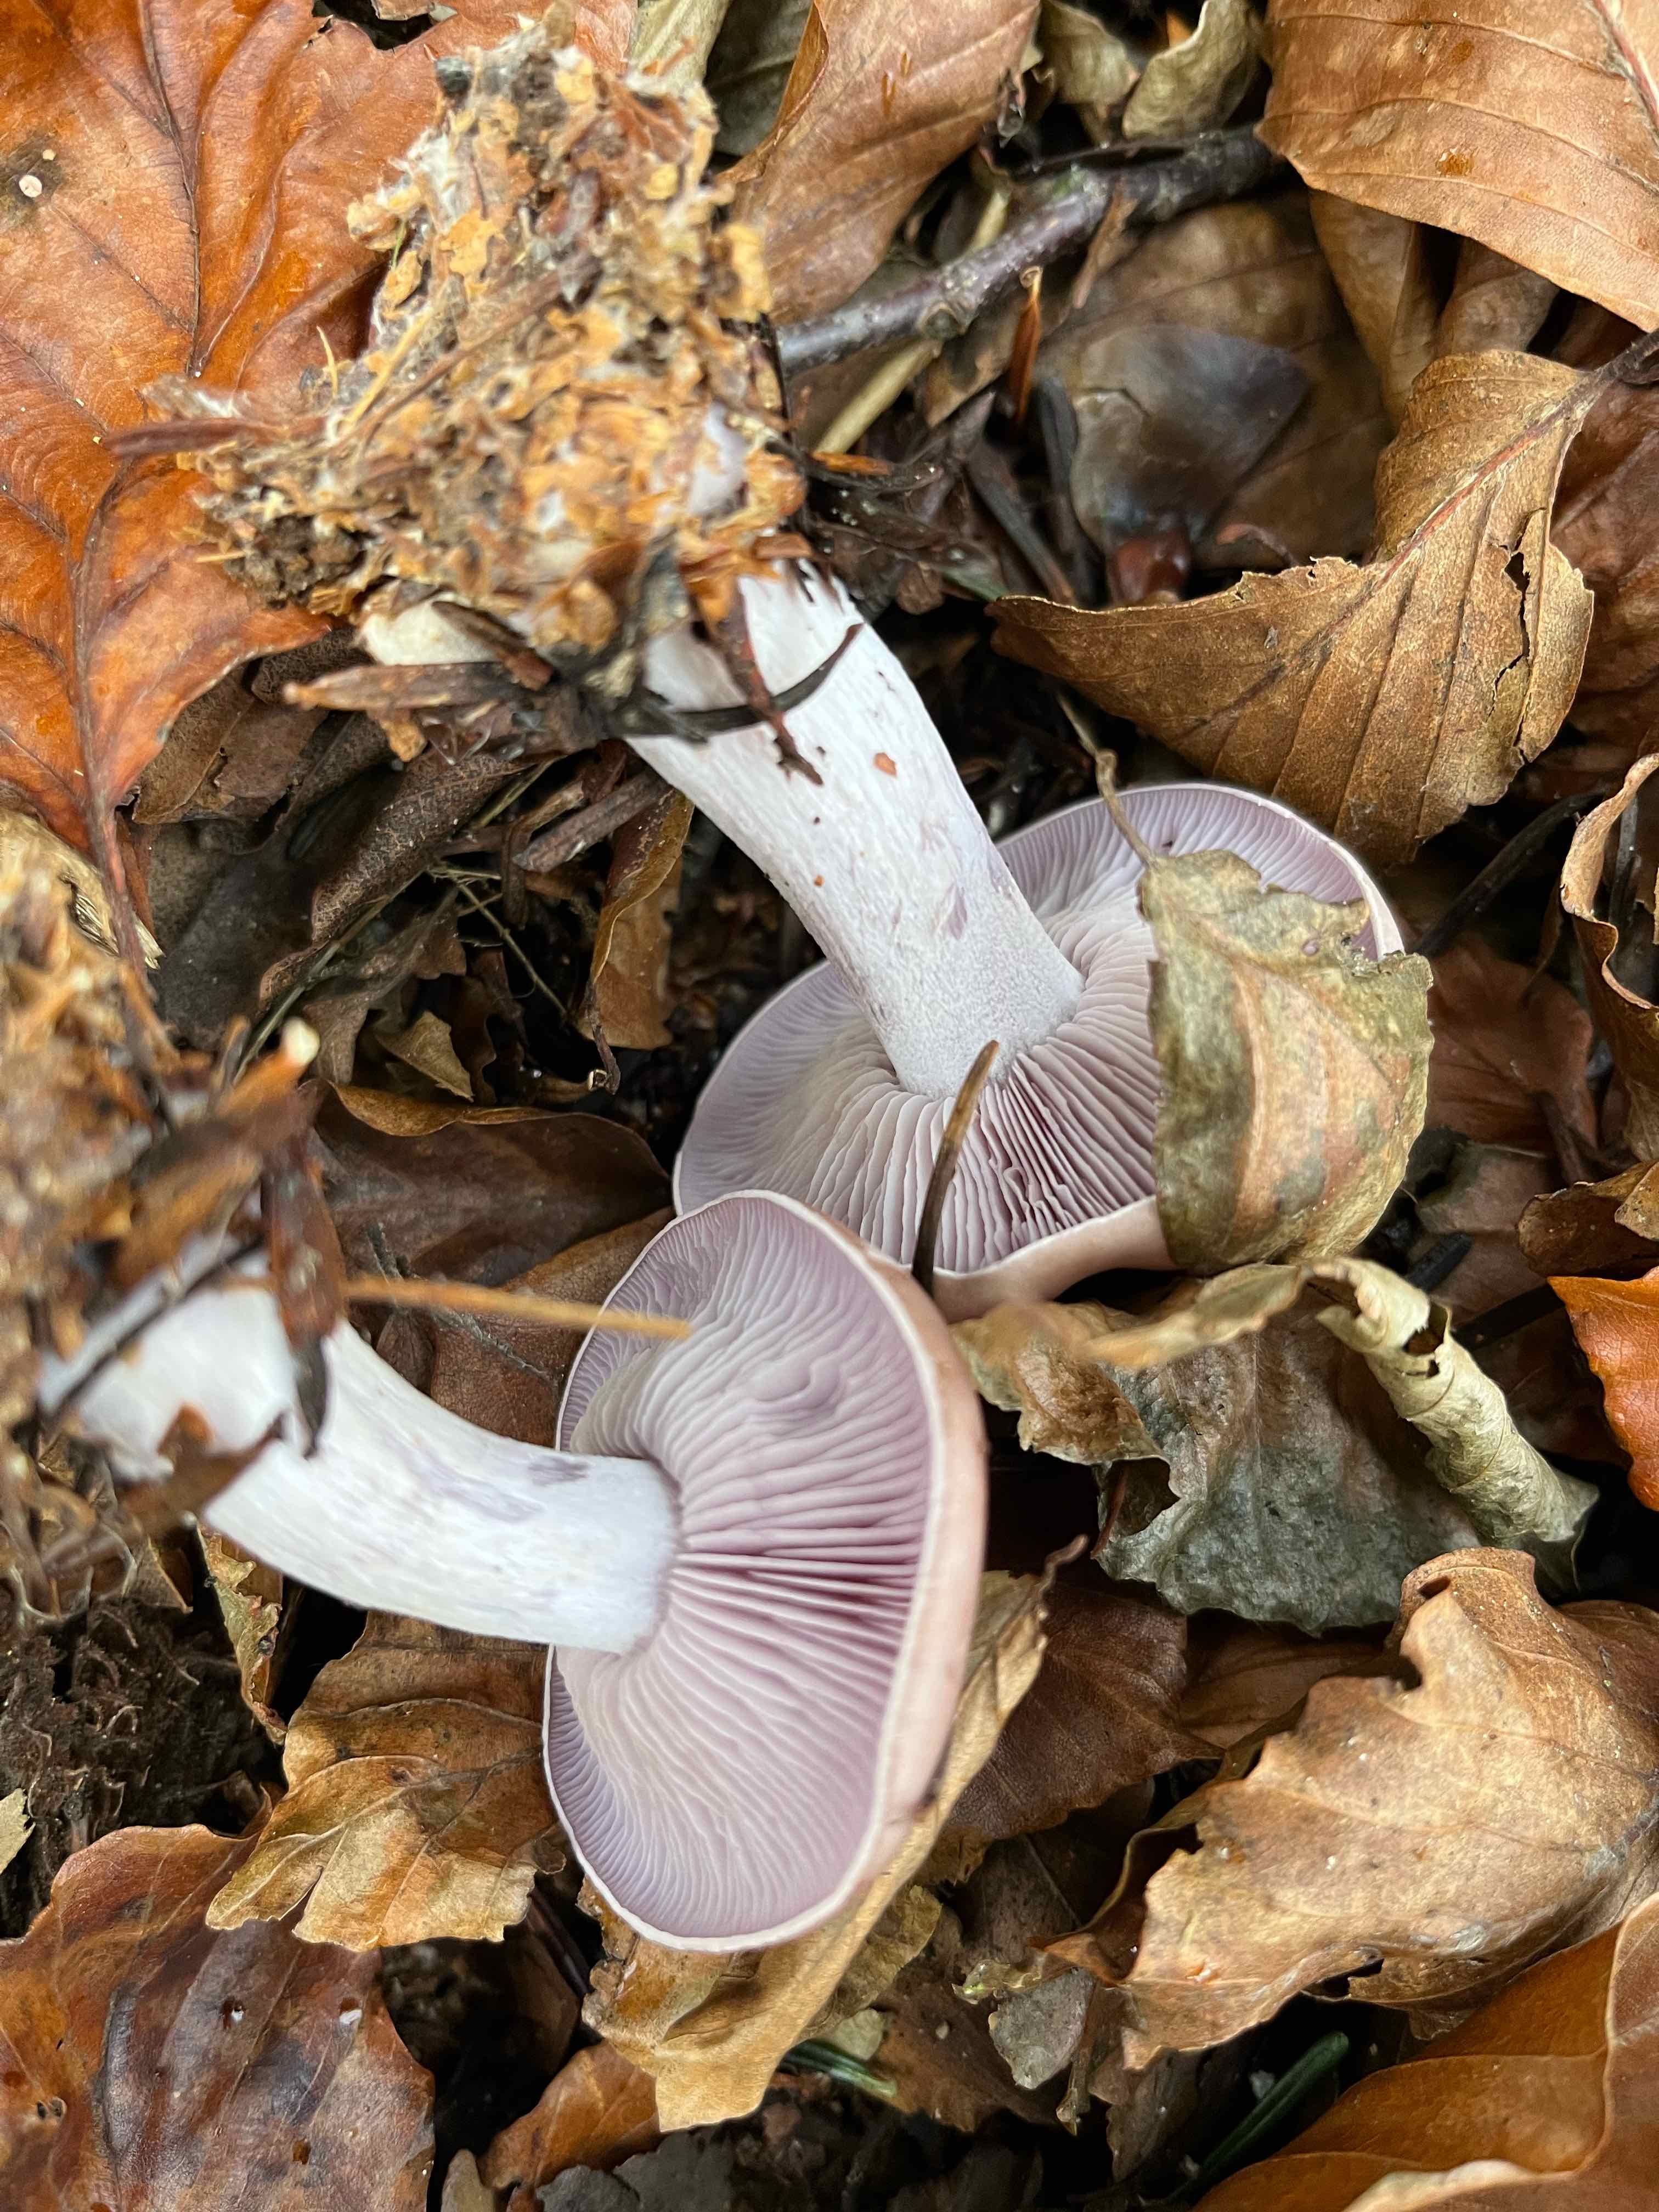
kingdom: Fungi
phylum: Basidiomycota
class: Agaricomycetes
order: Agaricales
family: Tricholomataceae
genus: Lepista
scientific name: Lepista nuda
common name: violet hekseringshat
